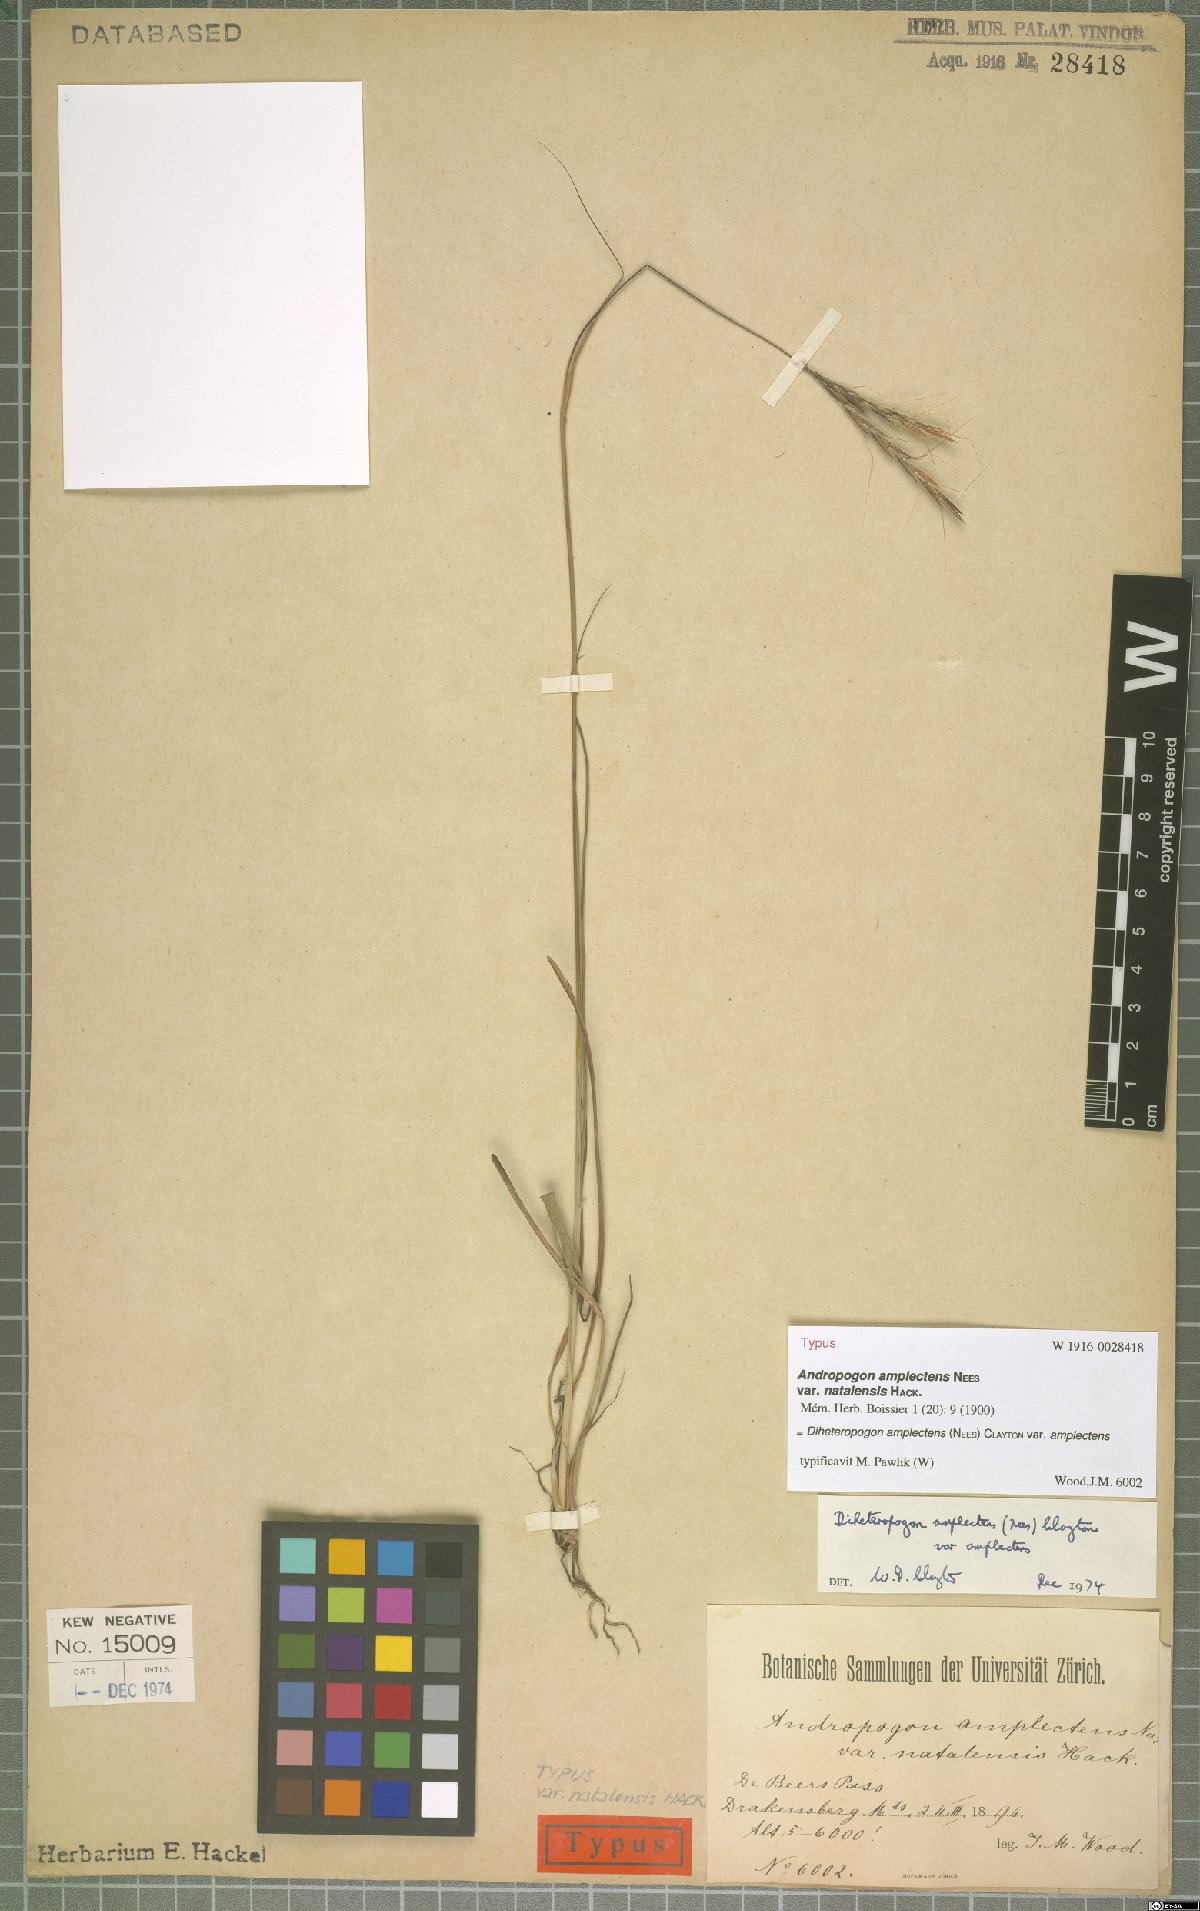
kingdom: Plantae
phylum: Tracheophyta
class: Liliopsida
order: Poales
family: Poaceae
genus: Diheteropogon
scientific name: Diheteropogon amplectens
